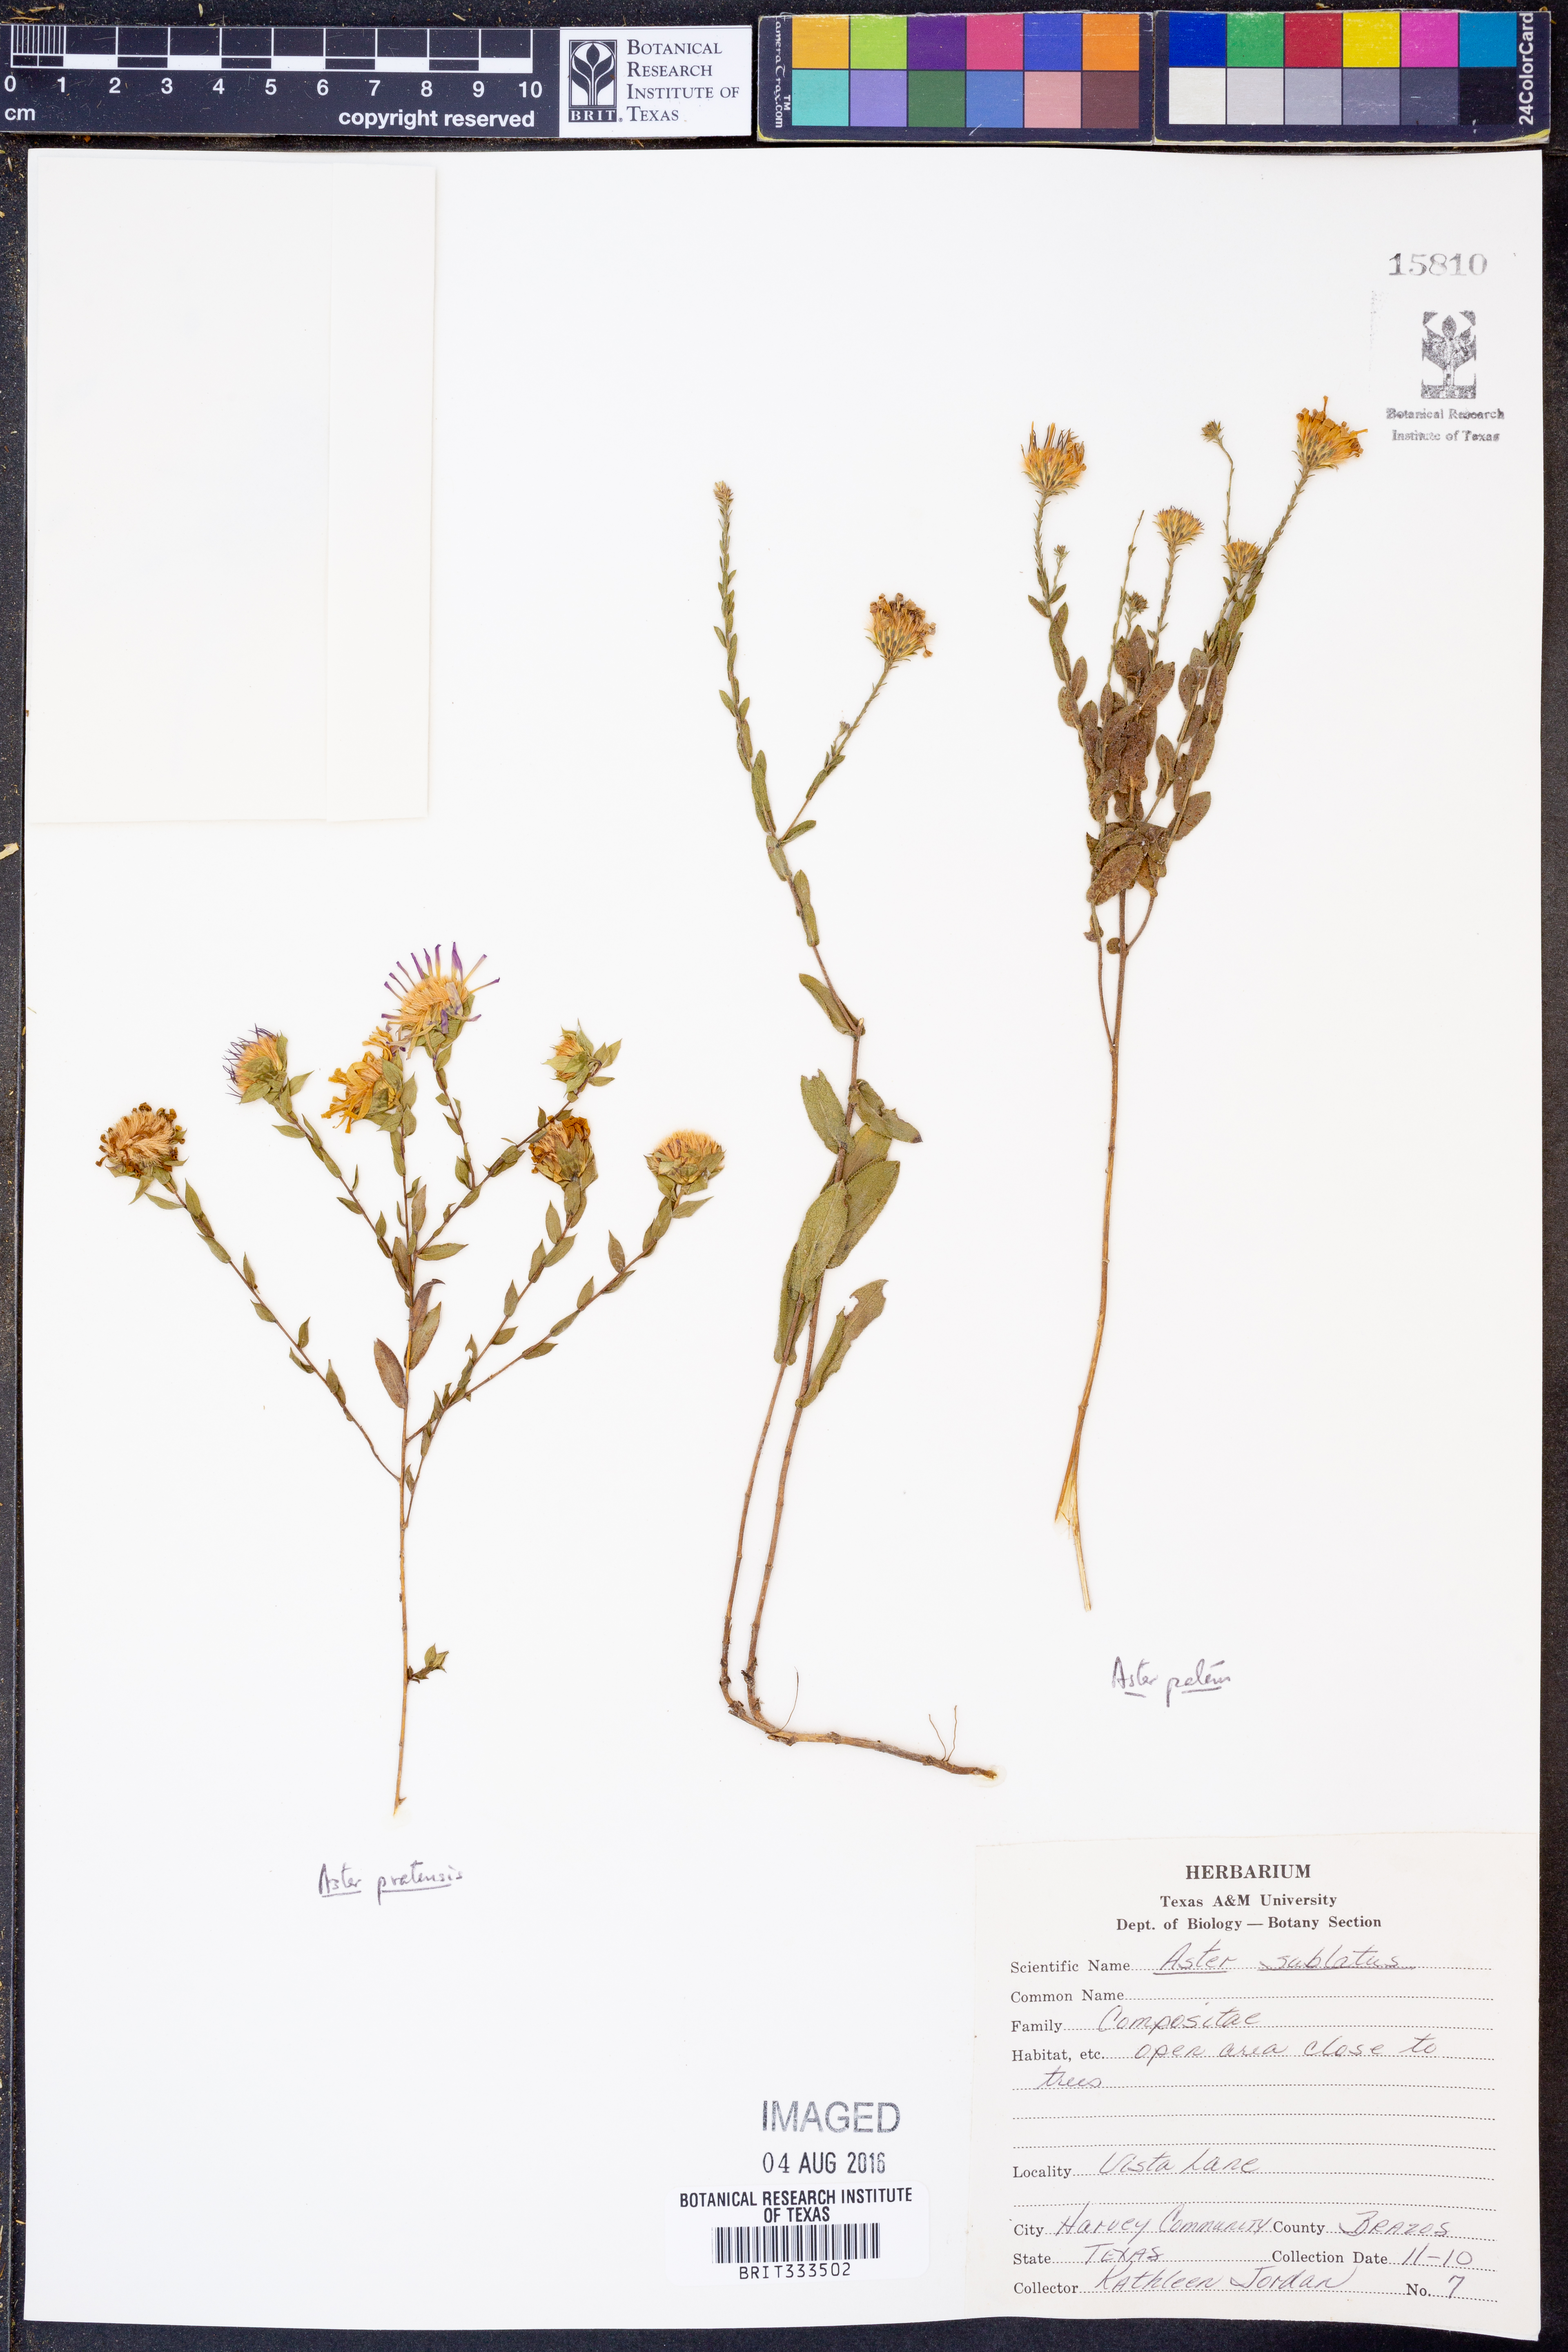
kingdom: Plantae
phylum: Tracheophyta
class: Magnoliopsida
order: Asterales
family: Asteraceae
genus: Symphyotrichum
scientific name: Symphyotrichum subulatum
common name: Annual saltmarsh aster
